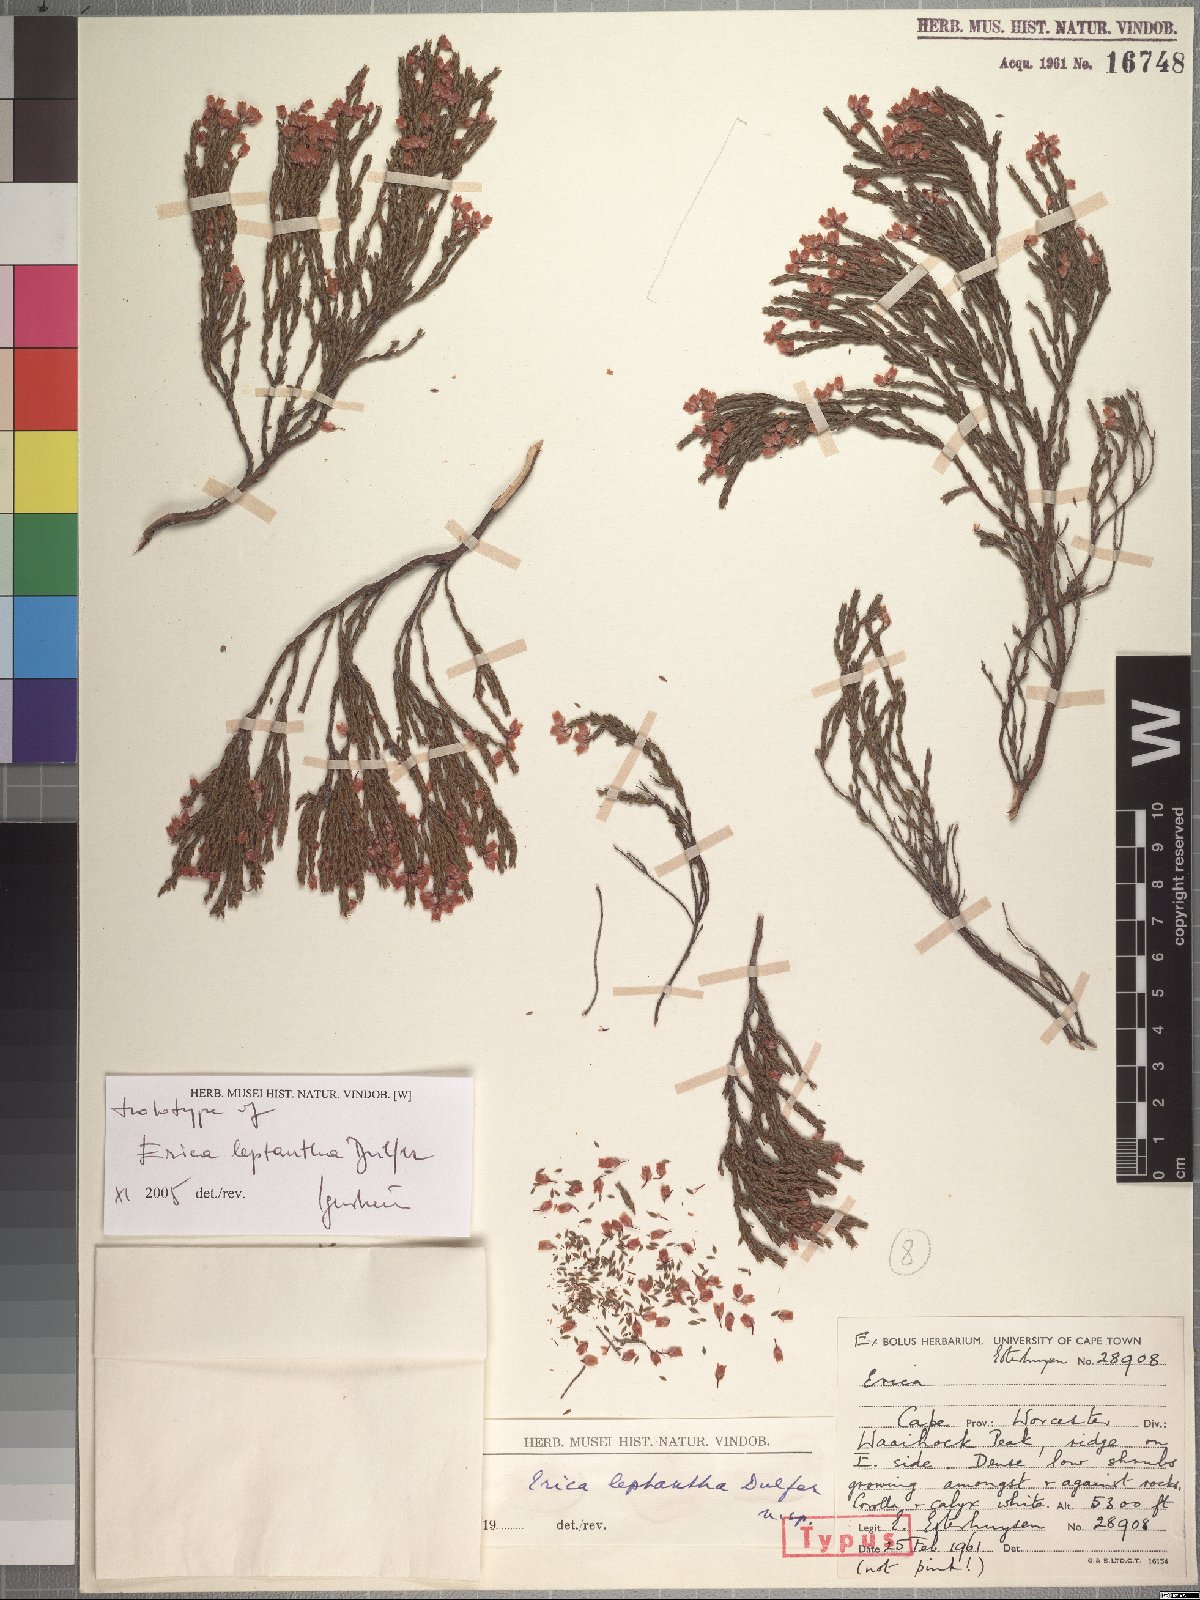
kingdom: Plantae
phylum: Tracheophyta
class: Magnoliopsida
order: Ericales
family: Ericaceae
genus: Erica
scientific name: Erica leptantha
